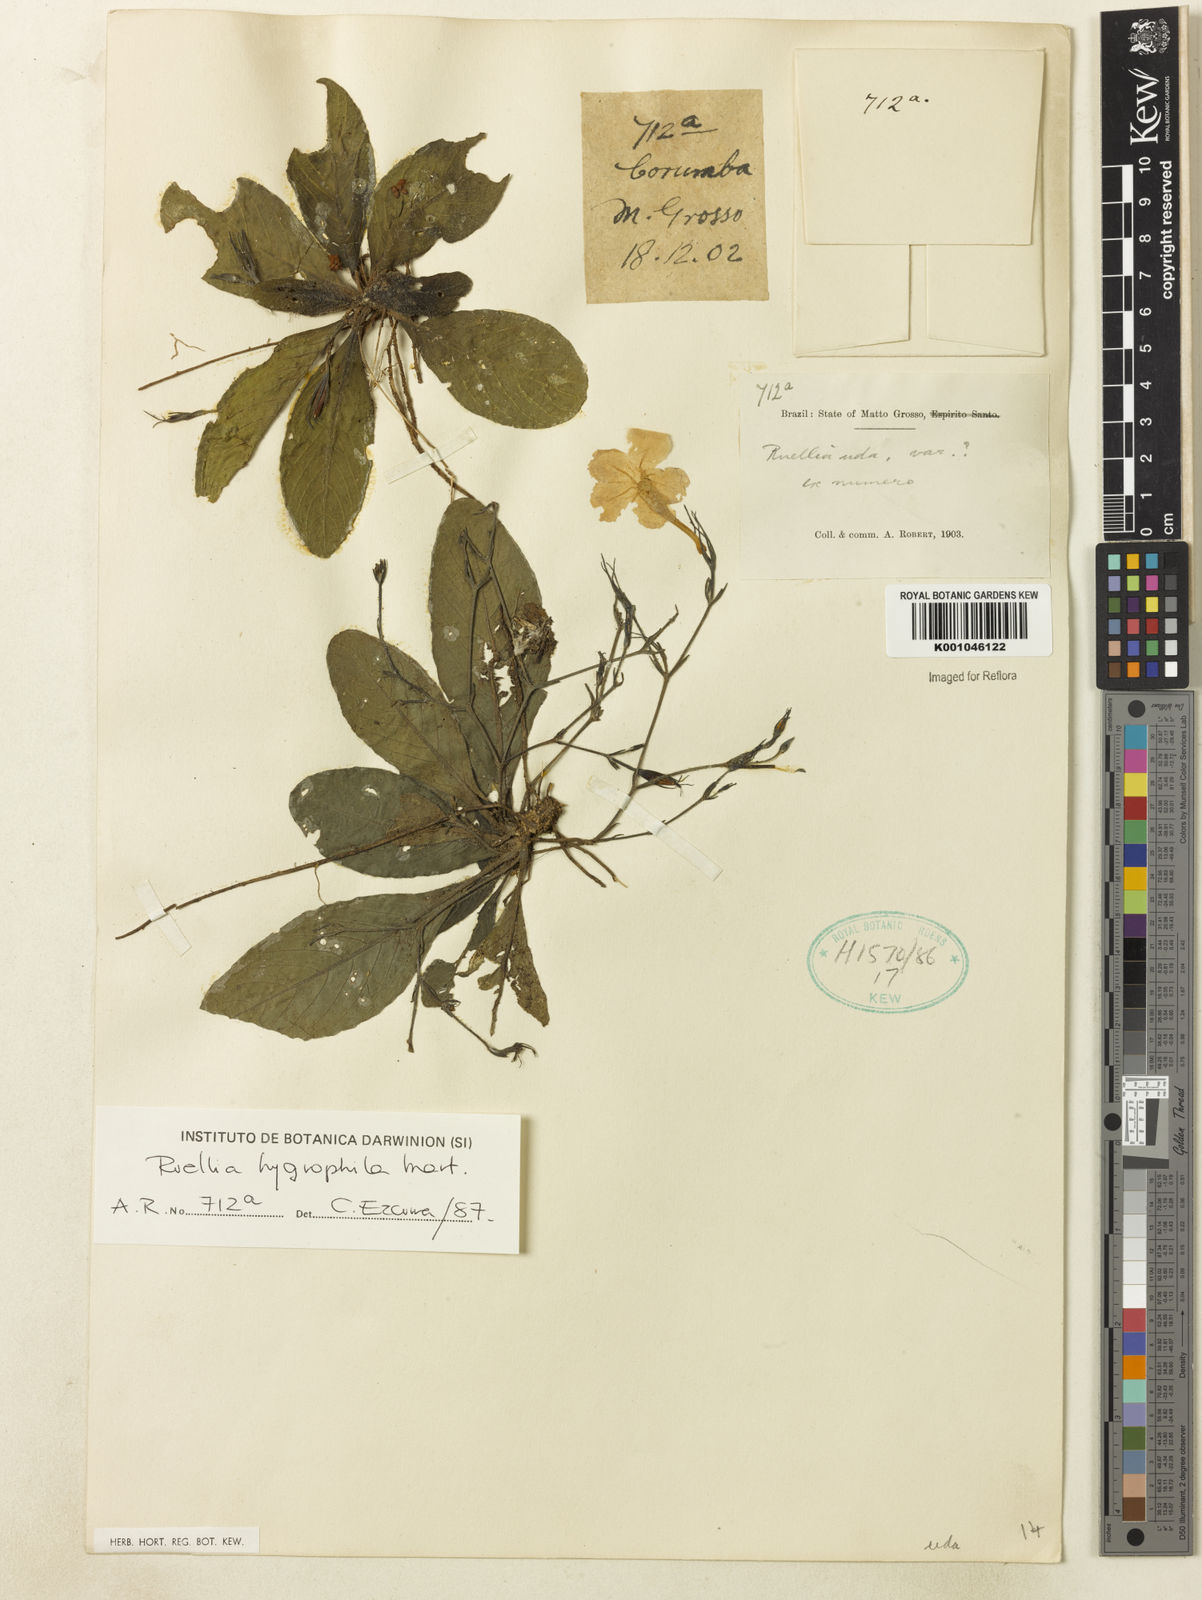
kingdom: Plantae
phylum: Tracheophyta
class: Magnoliopsida
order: Lamiales
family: Acanthaceae
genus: Ruellia
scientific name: Ruellia hygrophila
